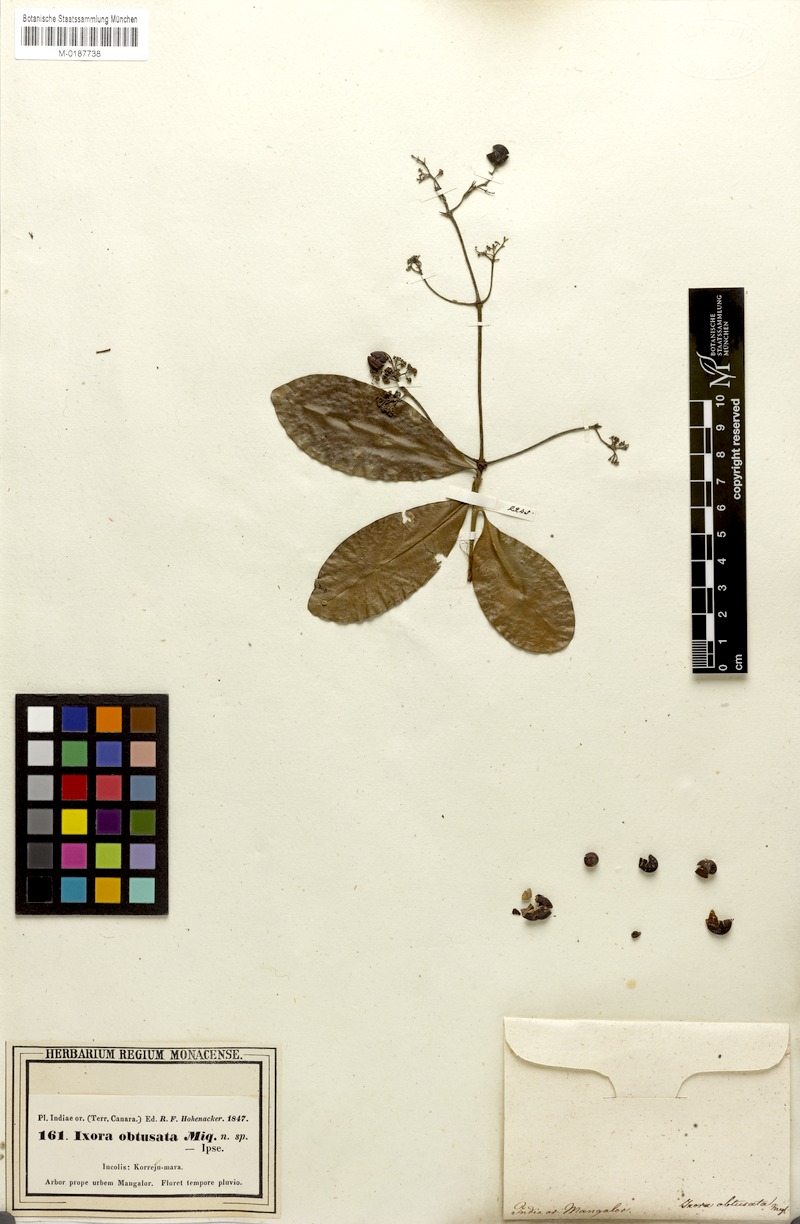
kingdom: Plantae
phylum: Tracheophyta
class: Magnoliopsida
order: Gentianales
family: Rubiaceae
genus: Ixora
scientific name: Ixora brachiata
